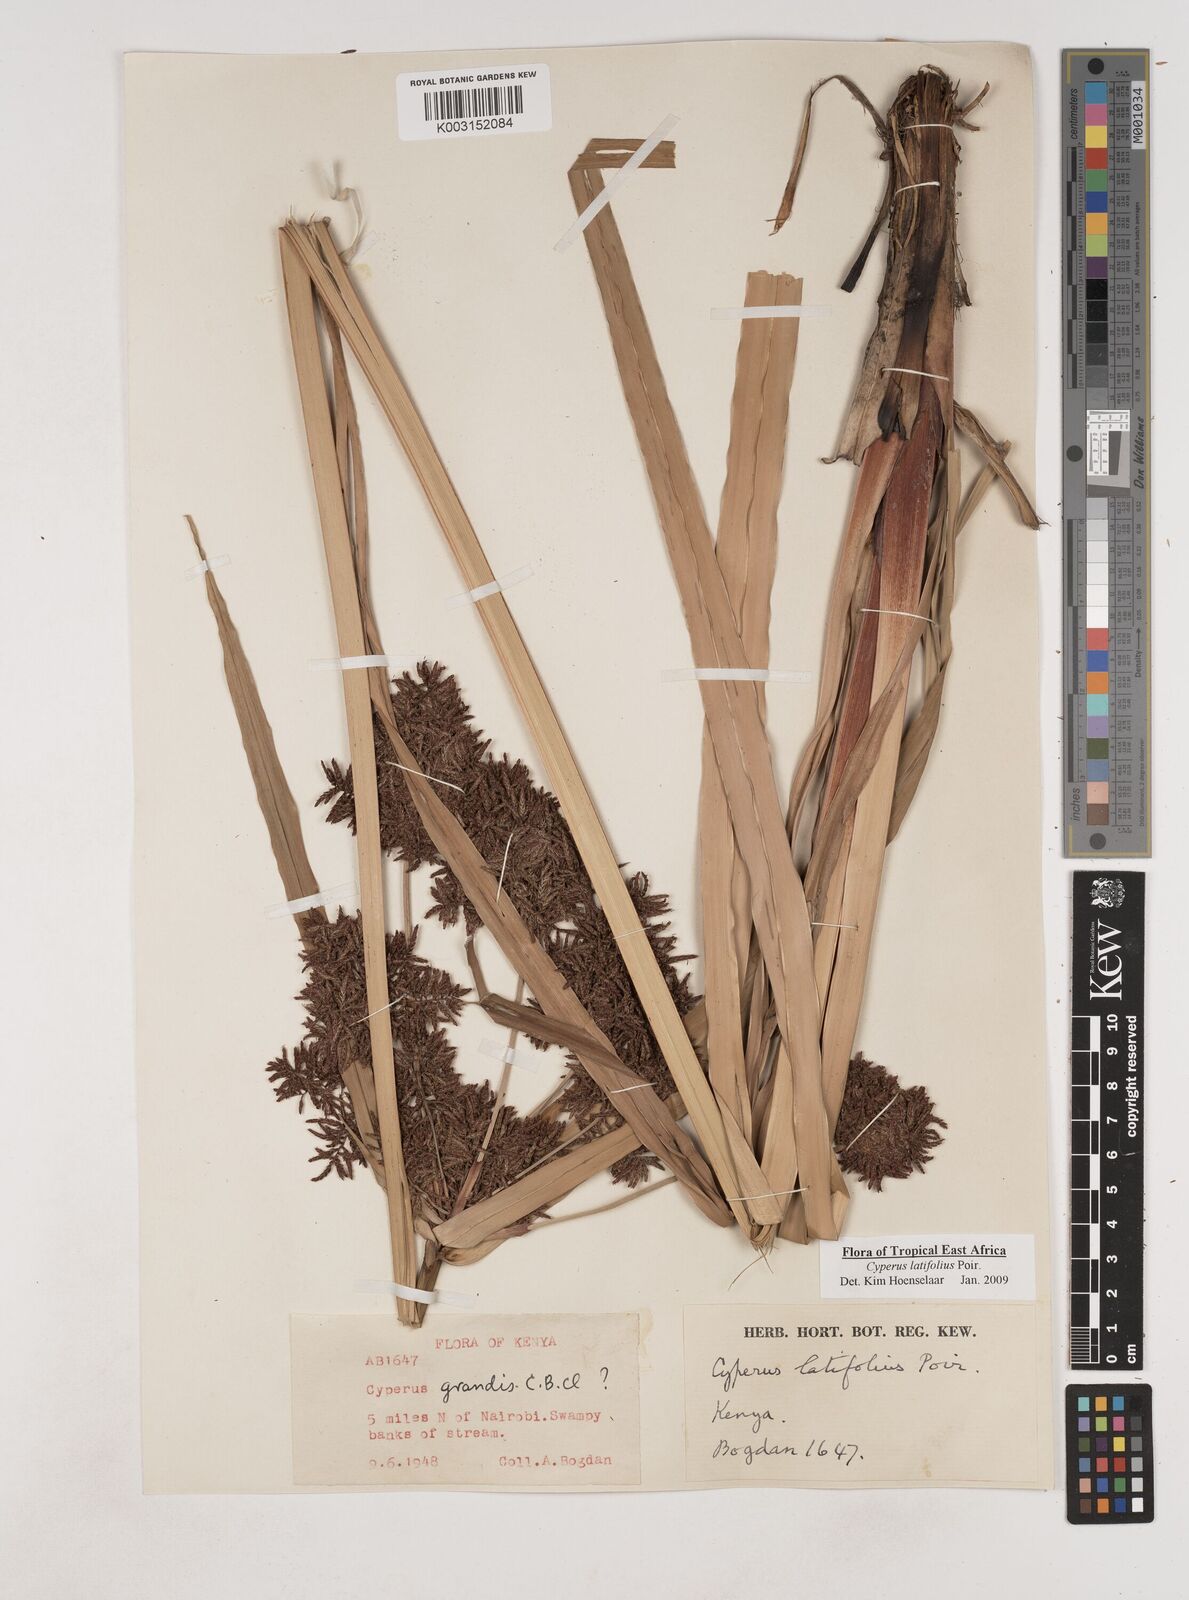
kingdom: Plantae
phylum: Tracheophyta
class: Liliopsida
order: Poales
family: Cyperaceae
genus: Cyperus
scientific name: Cyperus latifolius
